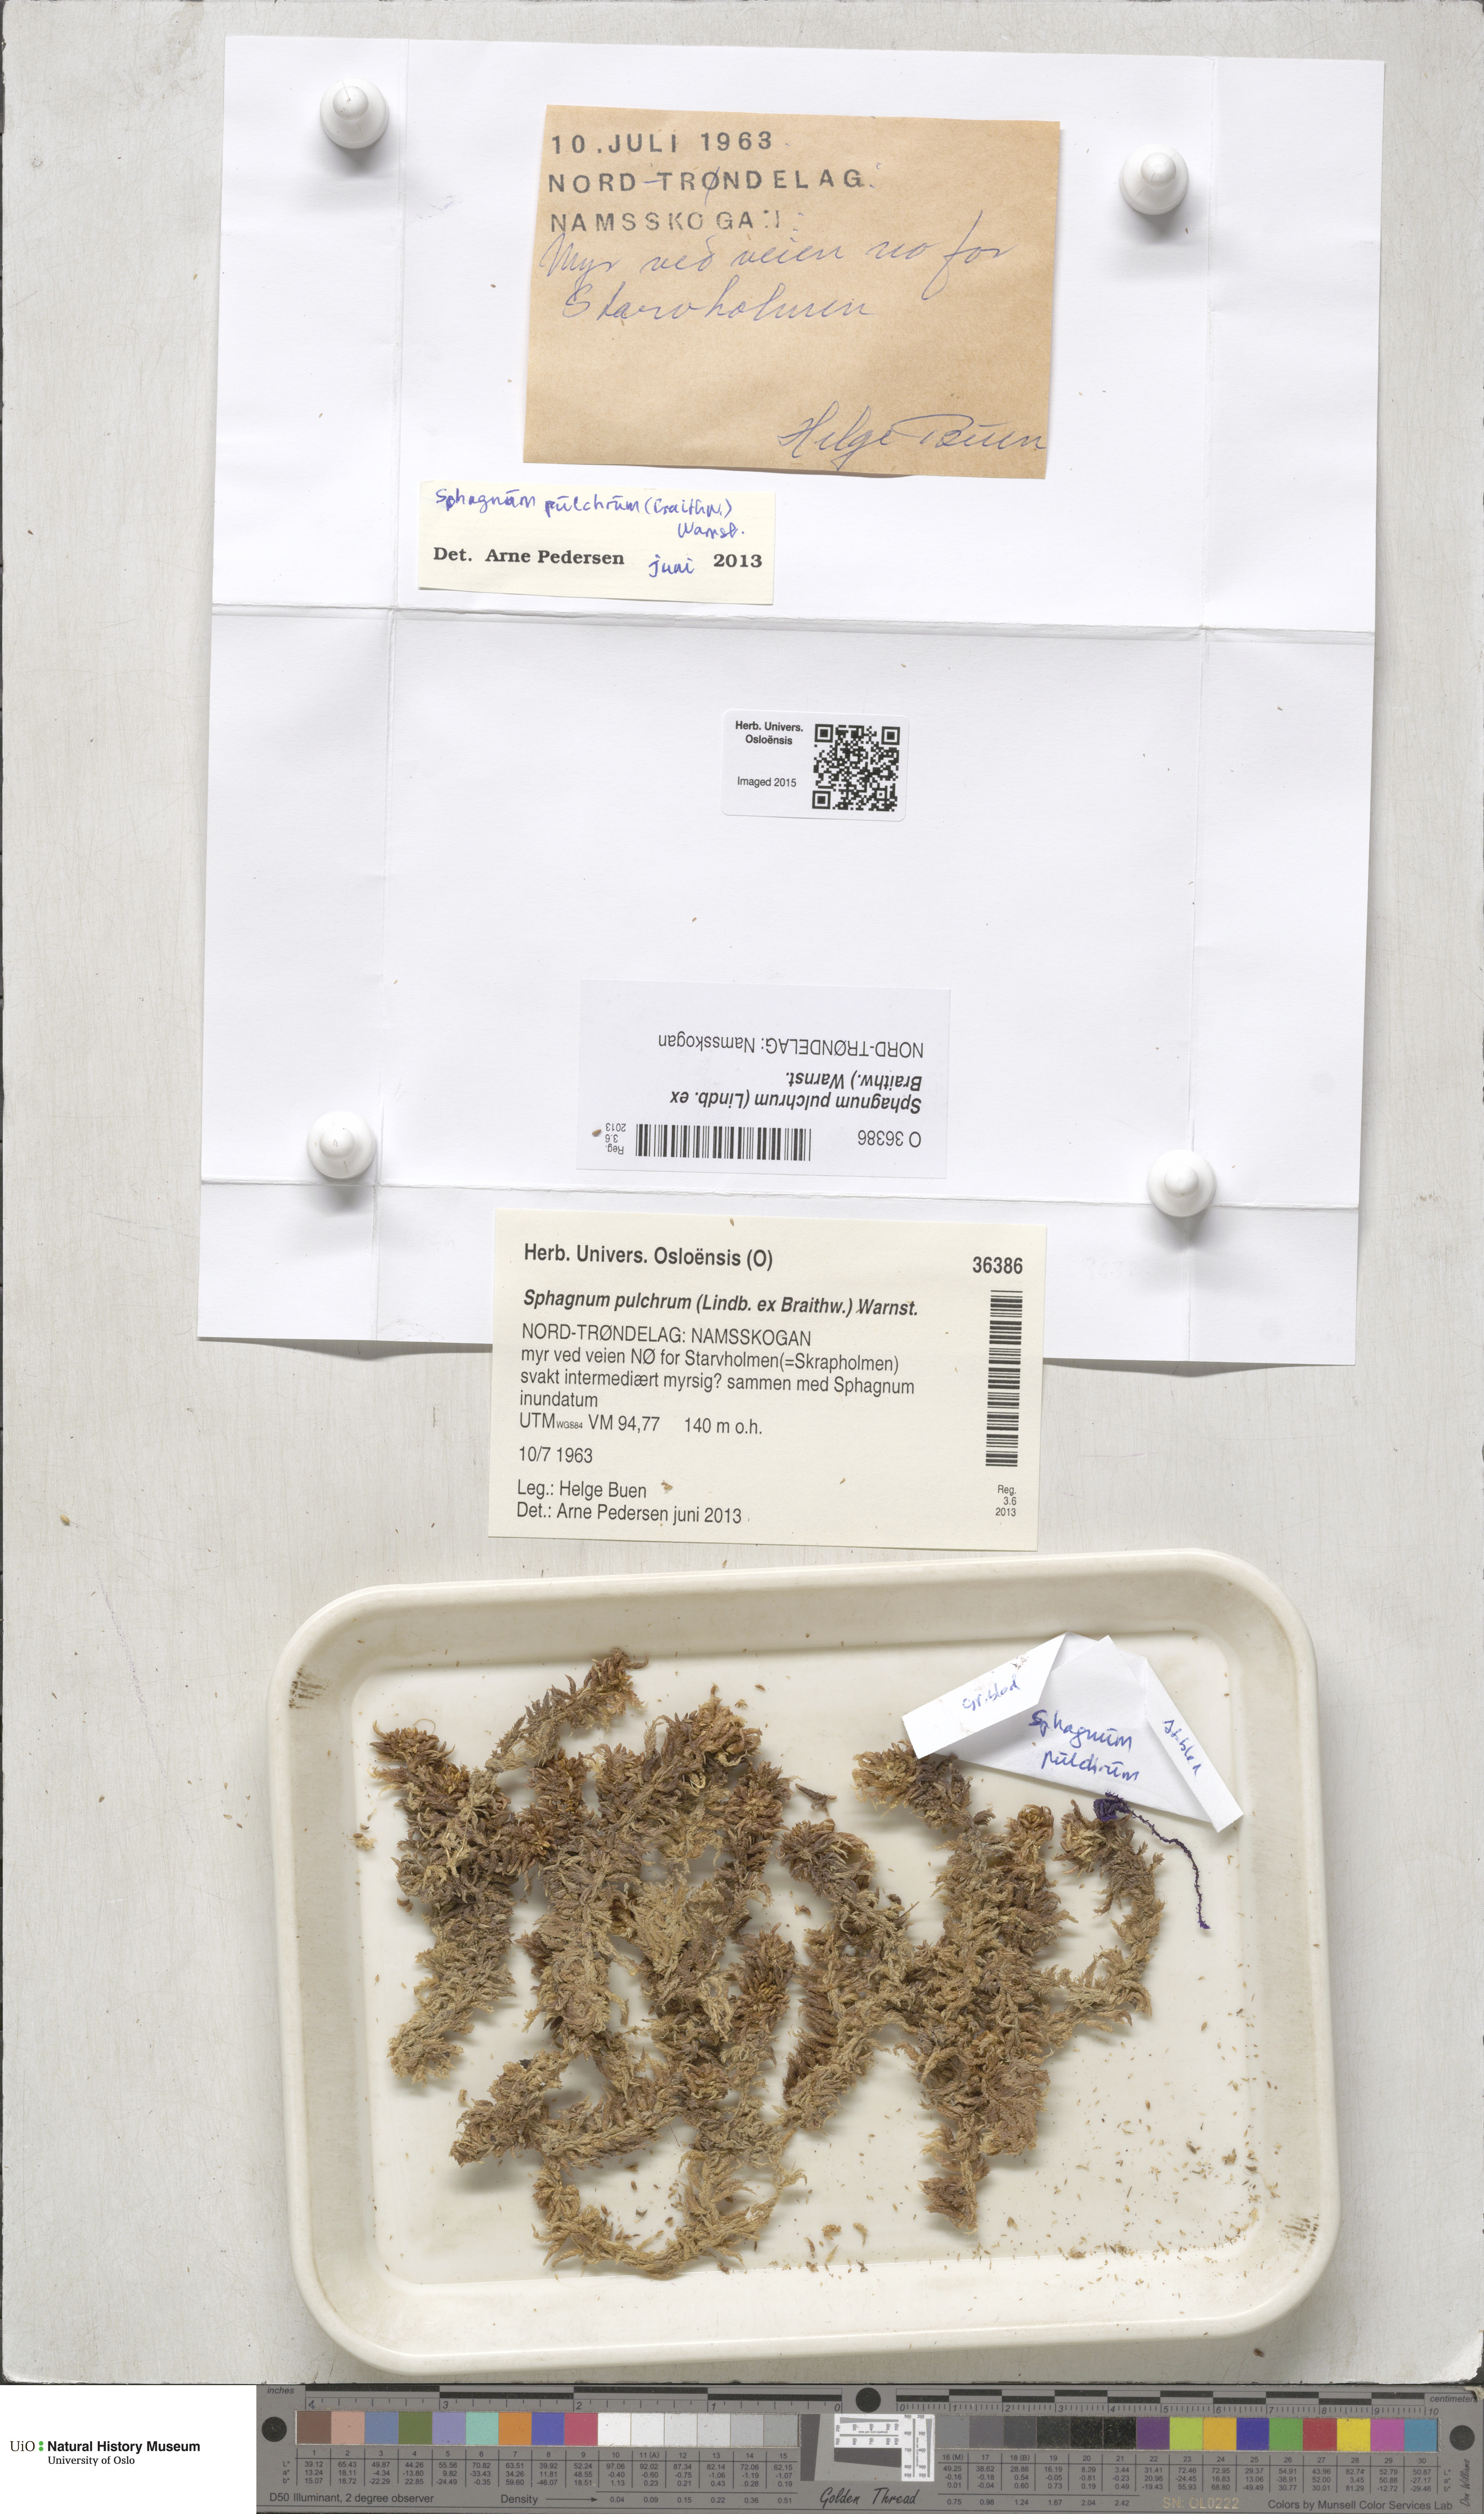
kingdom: Plantae
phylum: Bryophyta
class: Sphagnopsida
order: Sphagnales
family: Sphagnaceae
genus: Sphagnum
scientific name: Sphagnum pulchrum
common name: Beautiful peat moss
